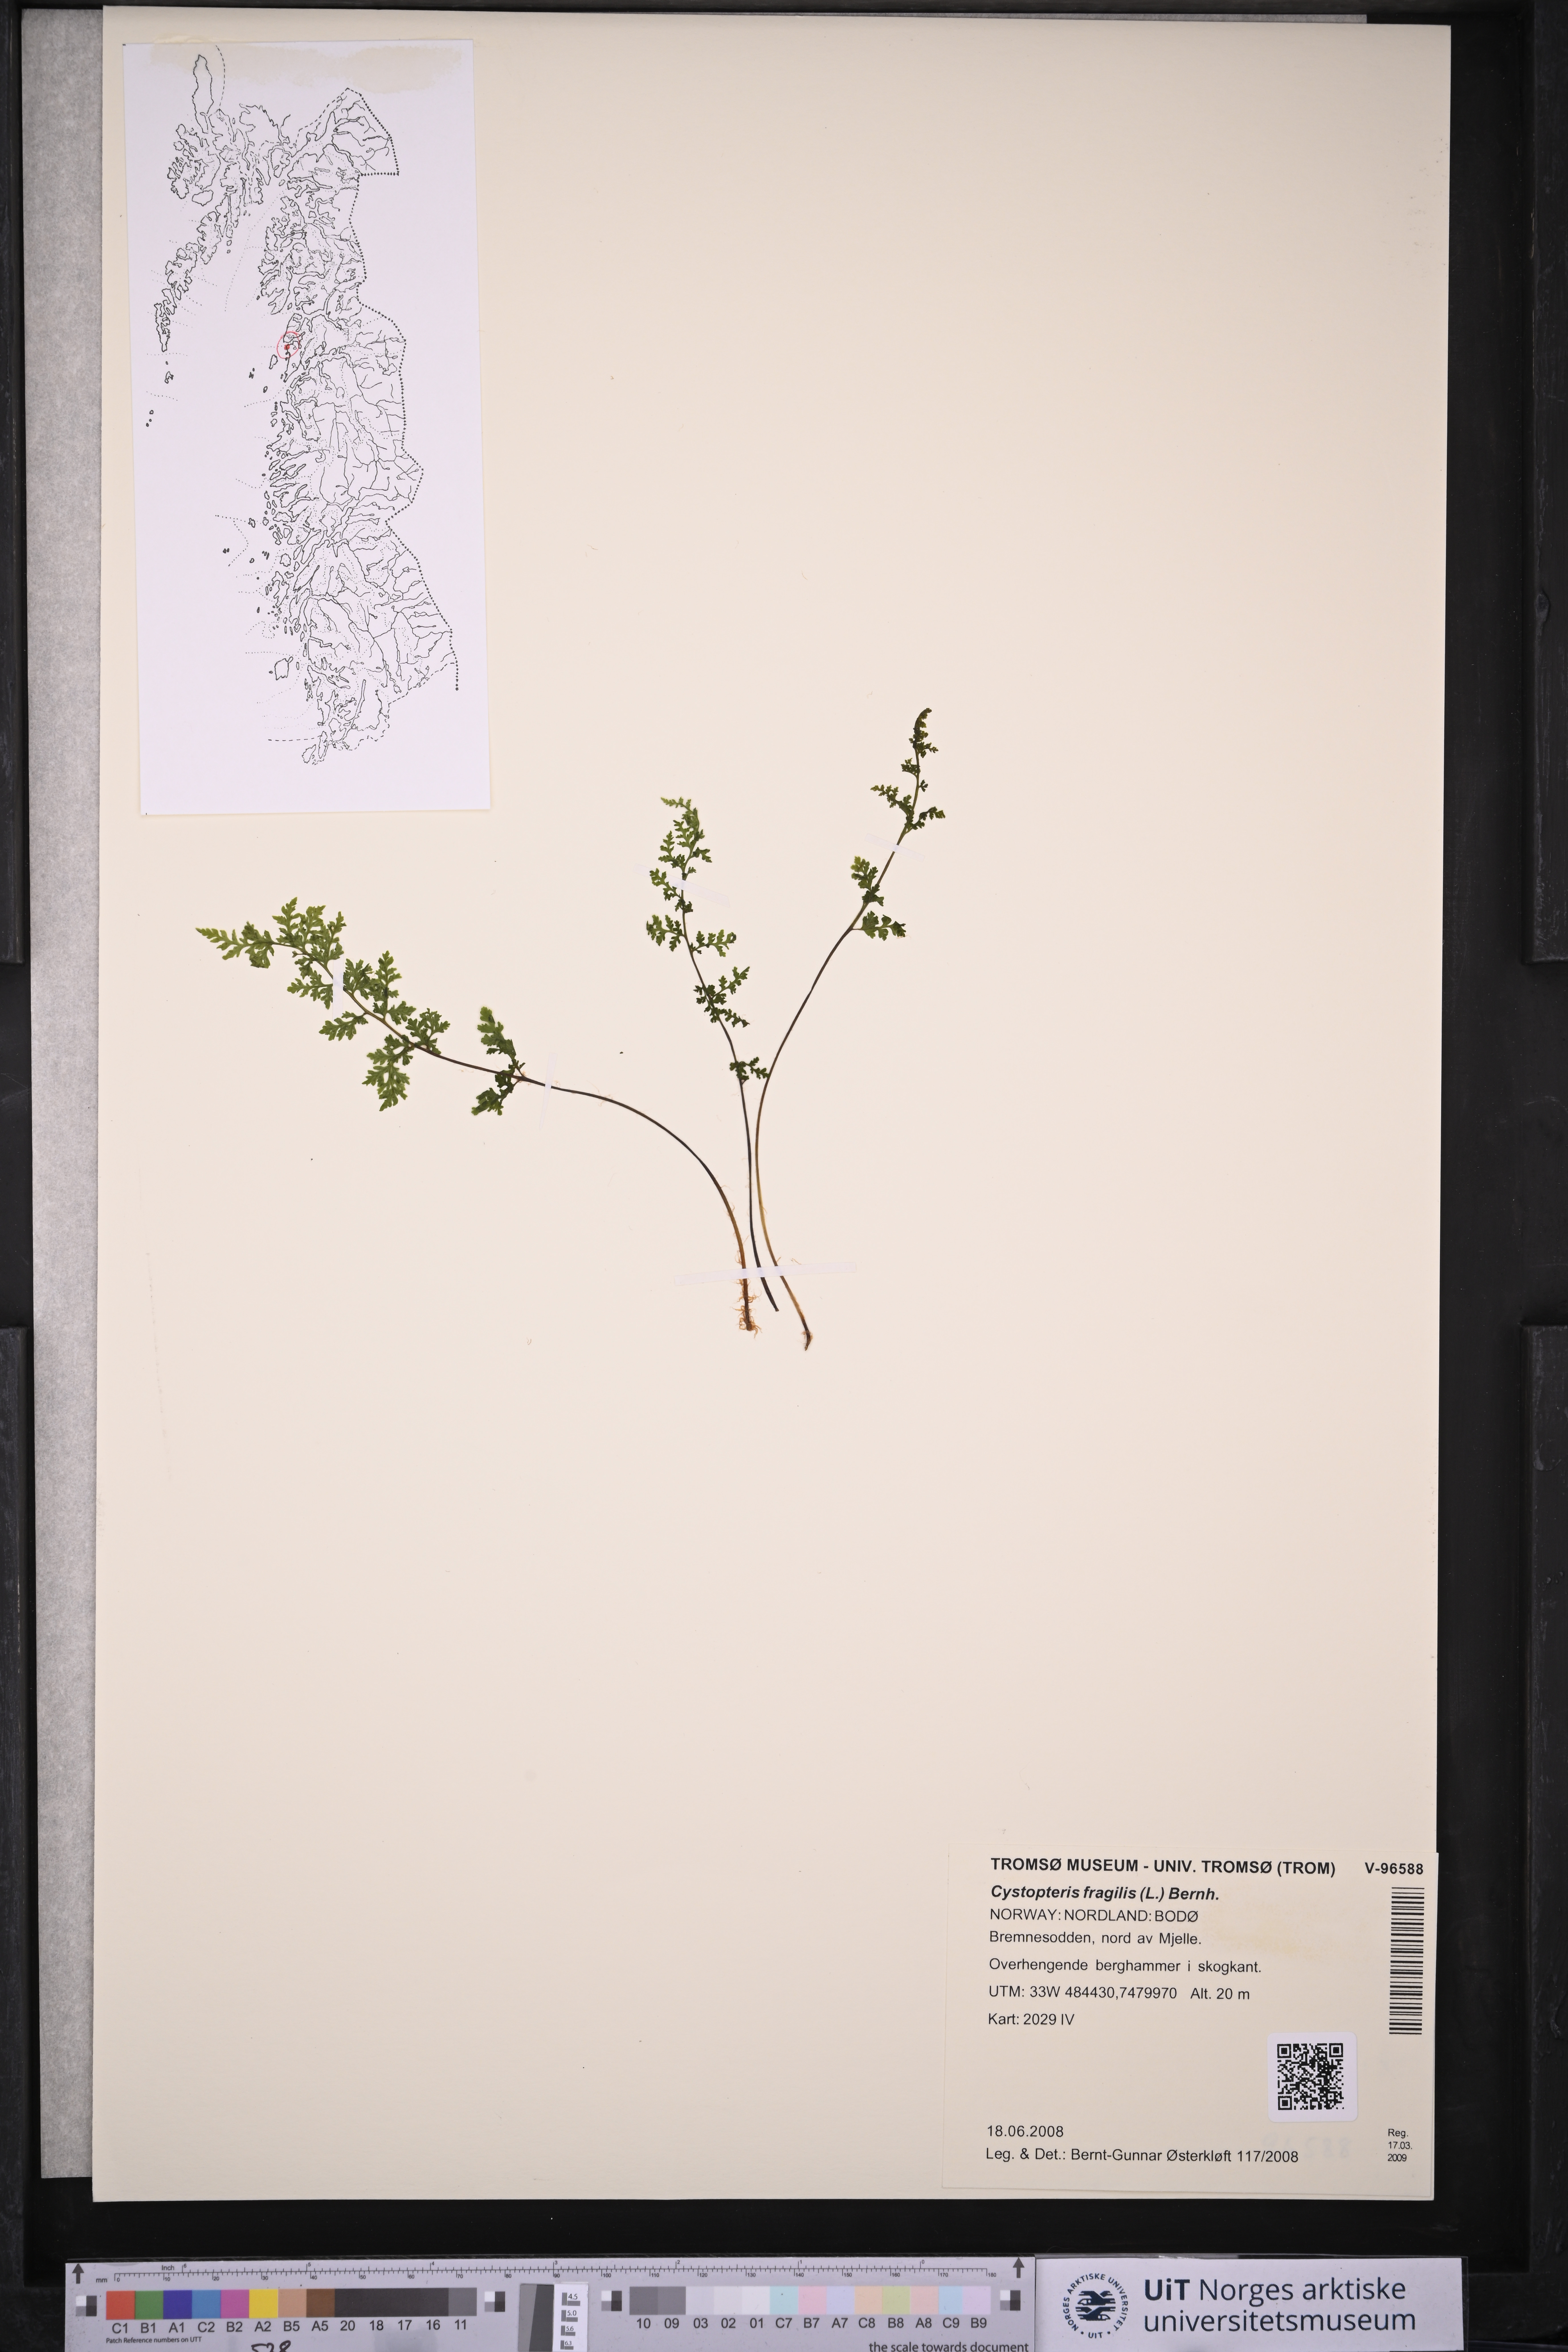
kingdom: Plantae
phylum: Tracheophyta
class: Polypodiopsida
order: Polypodiales
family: Cystopteridaceae
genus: Cystopteris
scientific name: Cystopteris fragilis
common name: Brittle bladder fern
